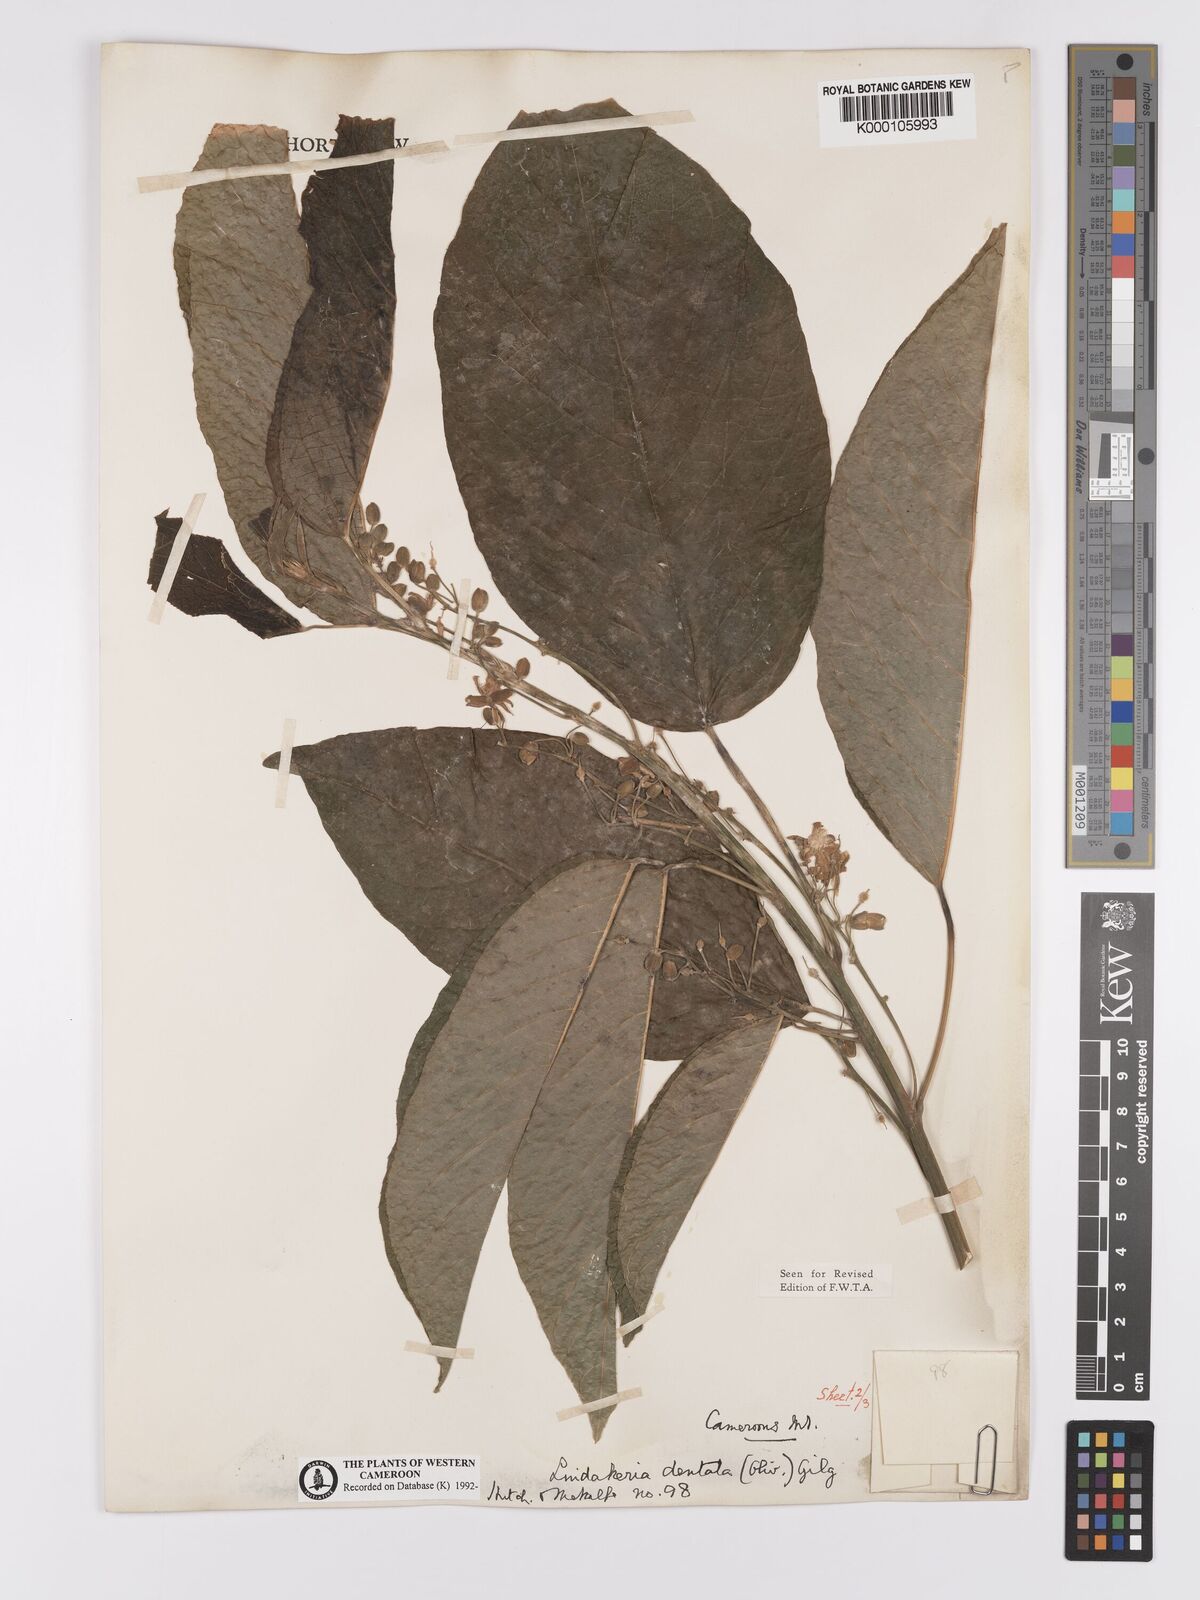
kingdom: Plantae
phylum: Tracheophyta
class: Magnoliopsida
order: Malpighiales
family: Achariaceae
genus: Lindackeria
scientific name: Lindackeria dentata
